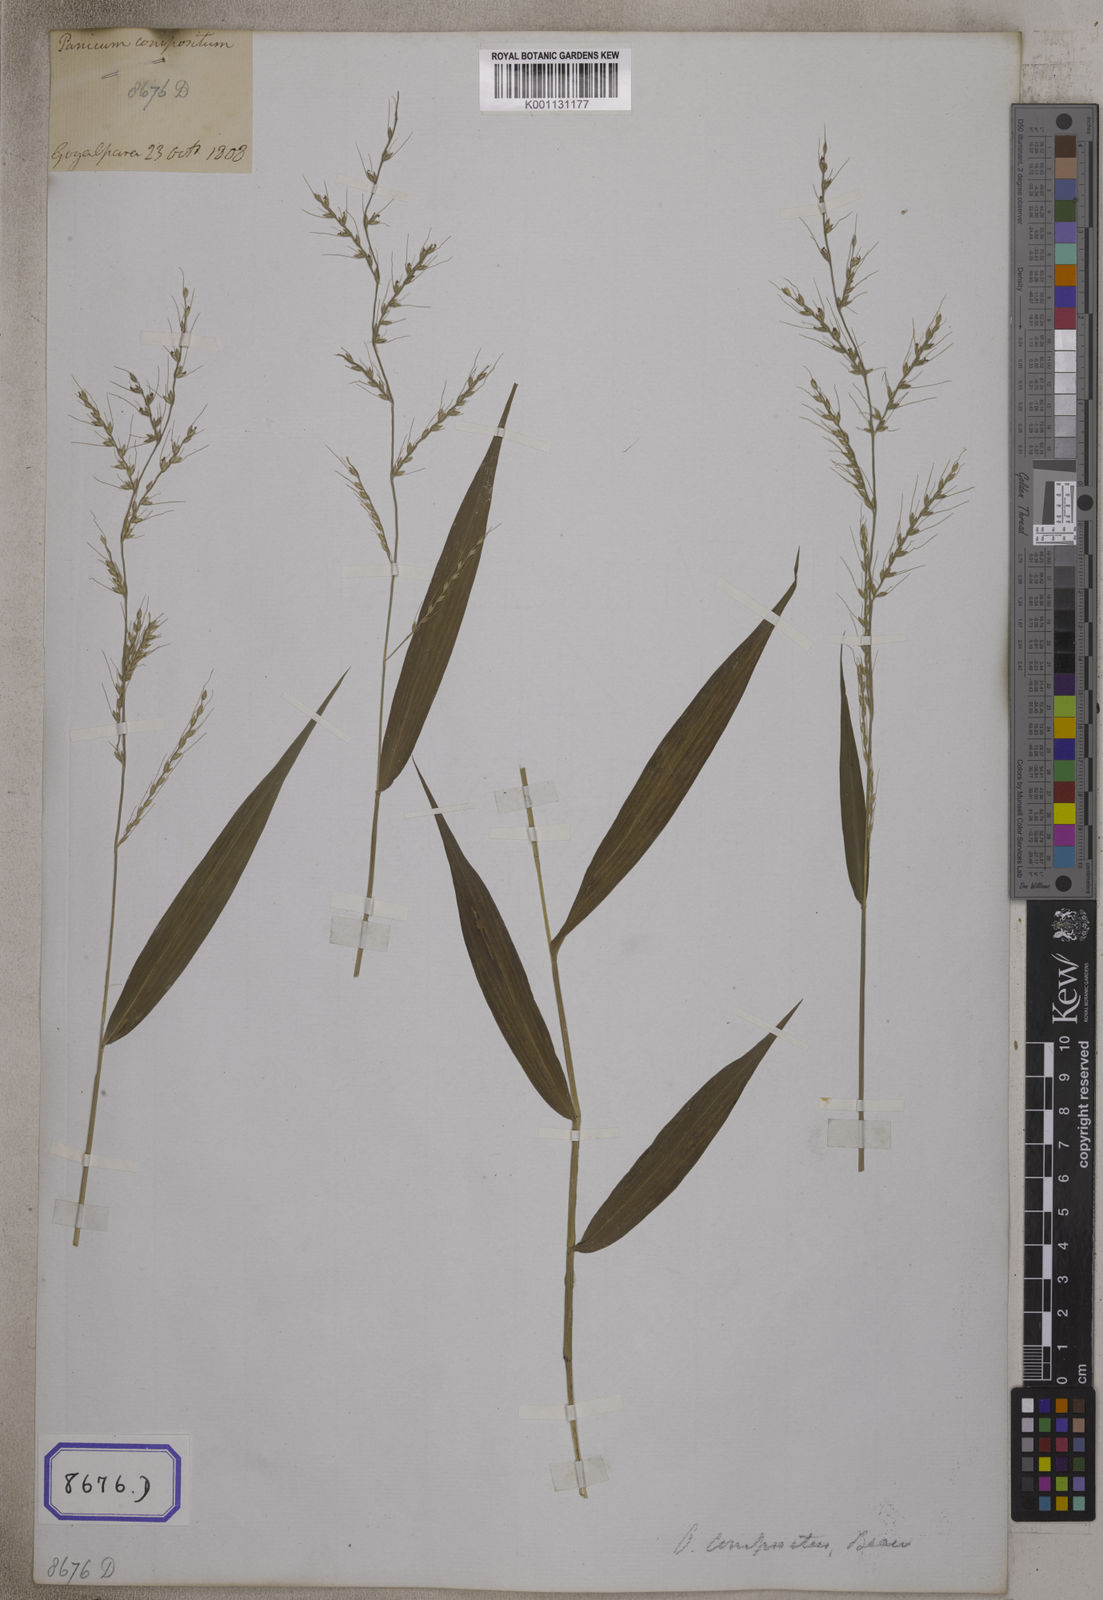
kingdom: Plantae
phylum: Tracheophyta
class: Liliopsida
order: Poales
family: Poaceae
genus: Oplismenus
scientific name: Oplismenus compositus
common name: Running mountain grass
